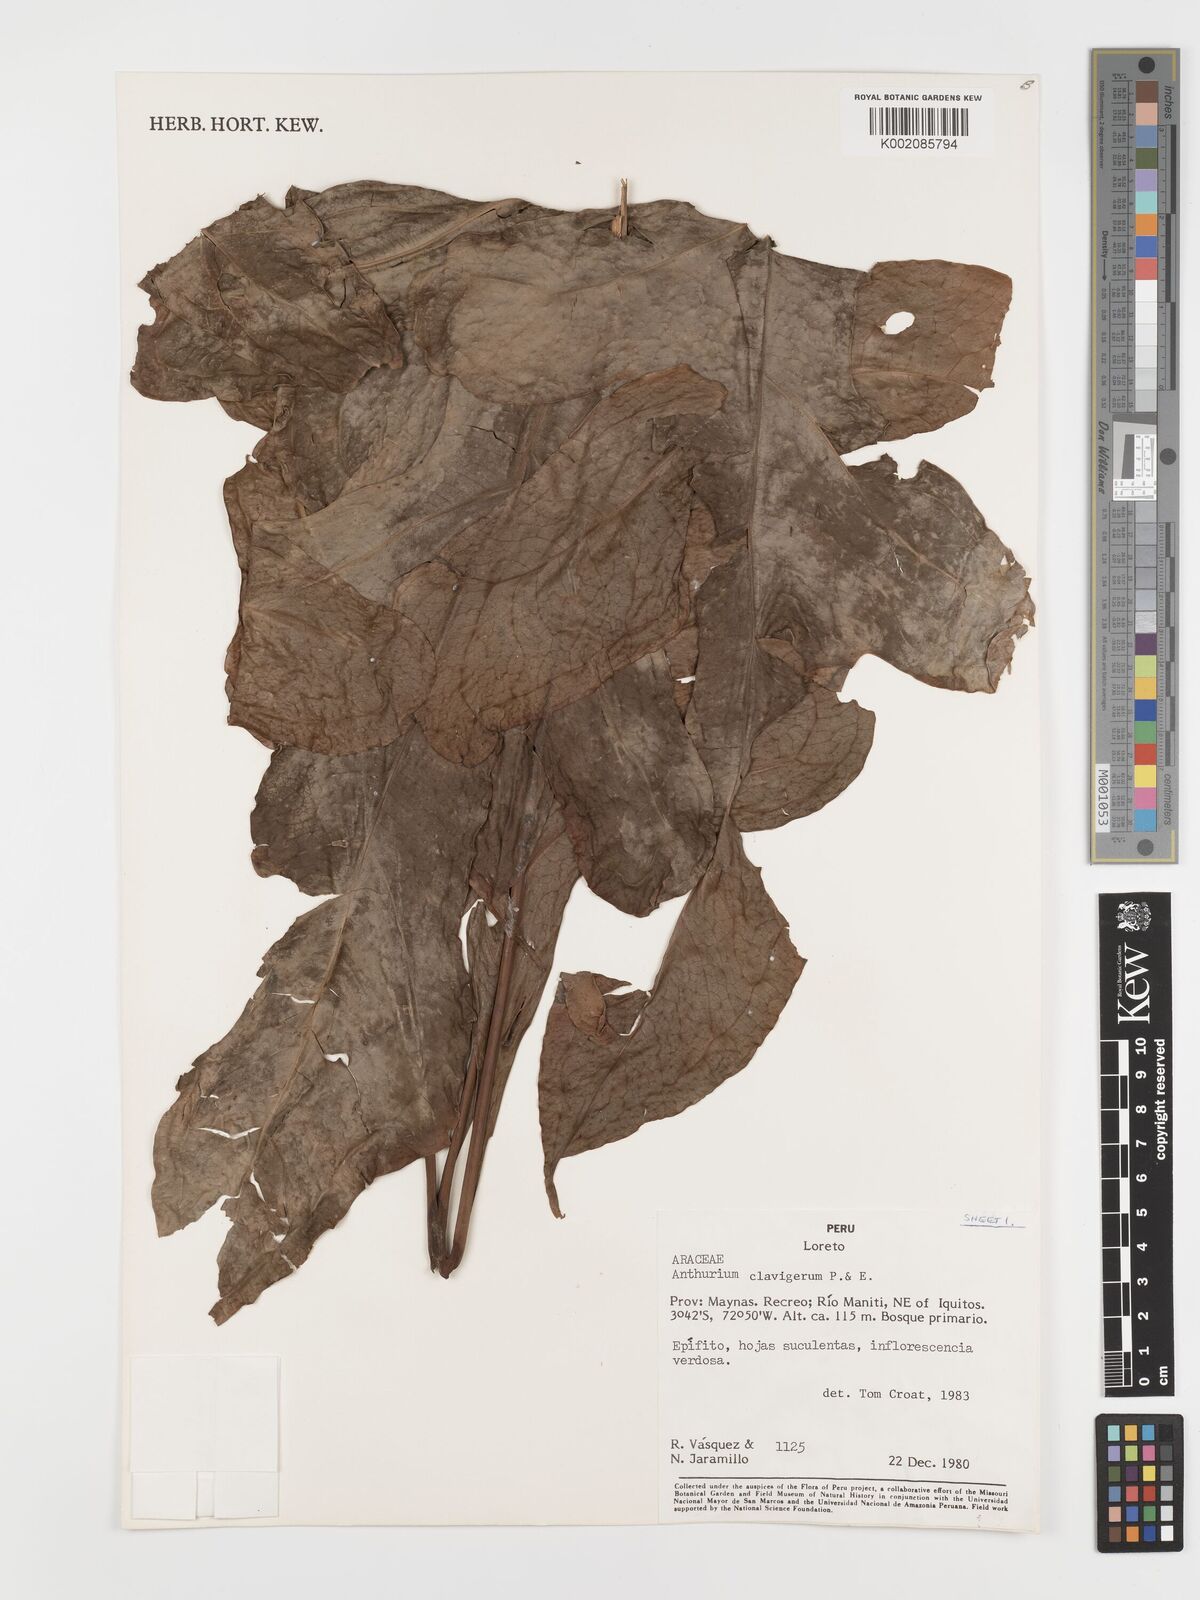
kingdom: Plantae
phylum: Tracheophyta
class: Liliopsida
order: Alismatales
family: Araceae
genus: Anthurium
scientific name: Anthurium clavigerum
